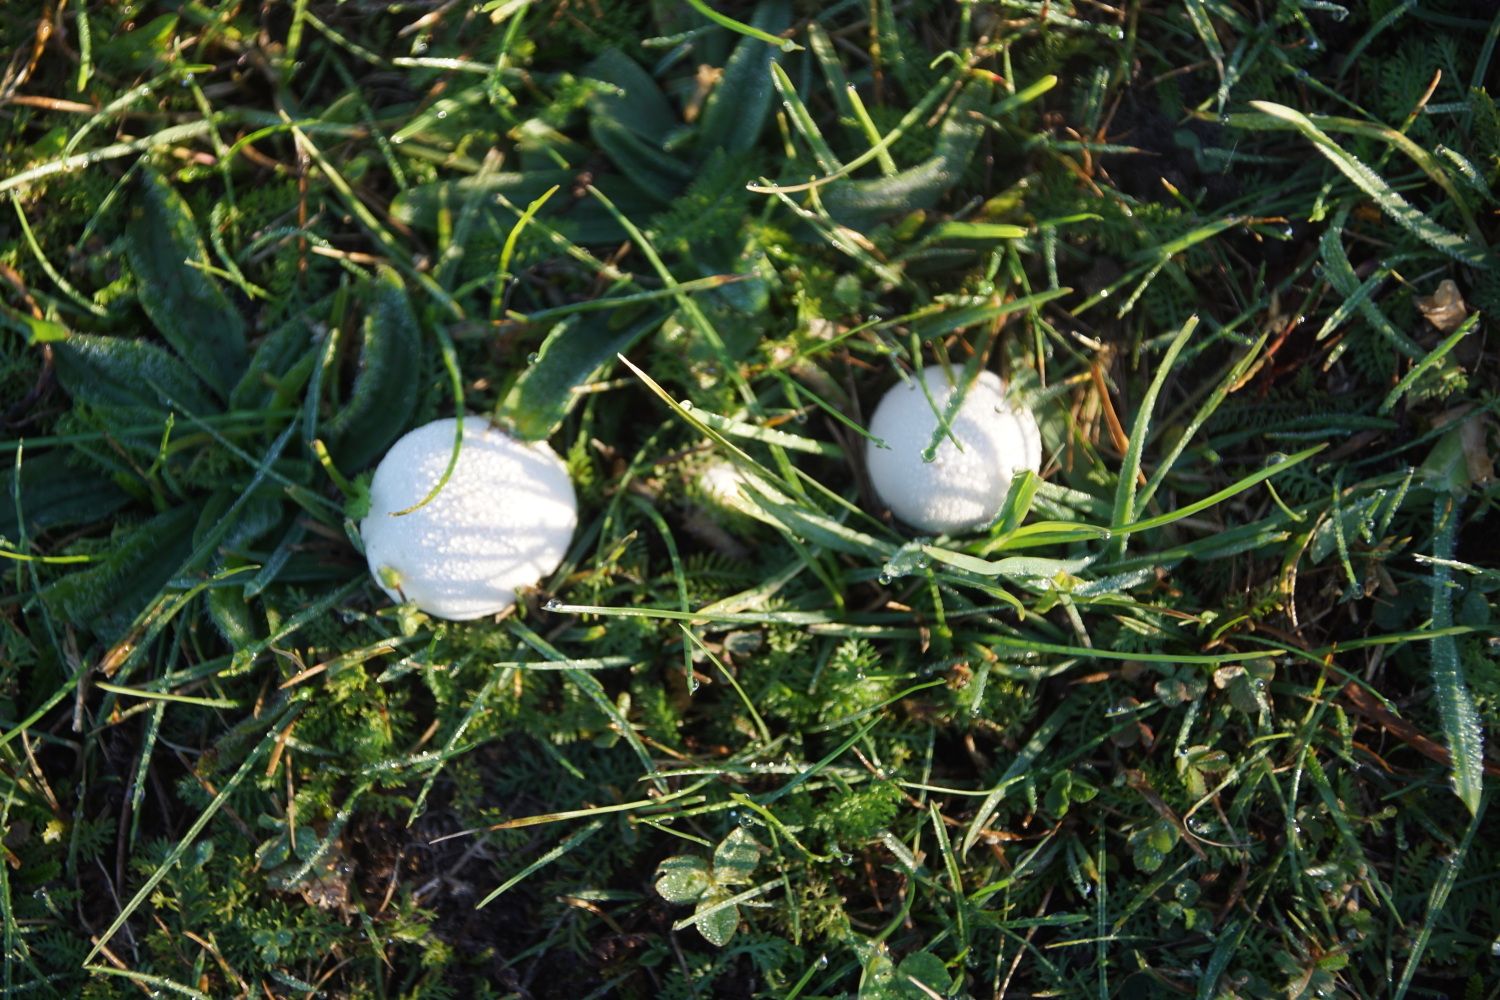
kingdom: Fungi
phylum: Basidiomycota
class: Agaricomycetes
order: Agaricales
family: Lycoperdaceae
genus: Lycoperdon
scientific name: Lycoperdon pratense
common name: flad støvbold
